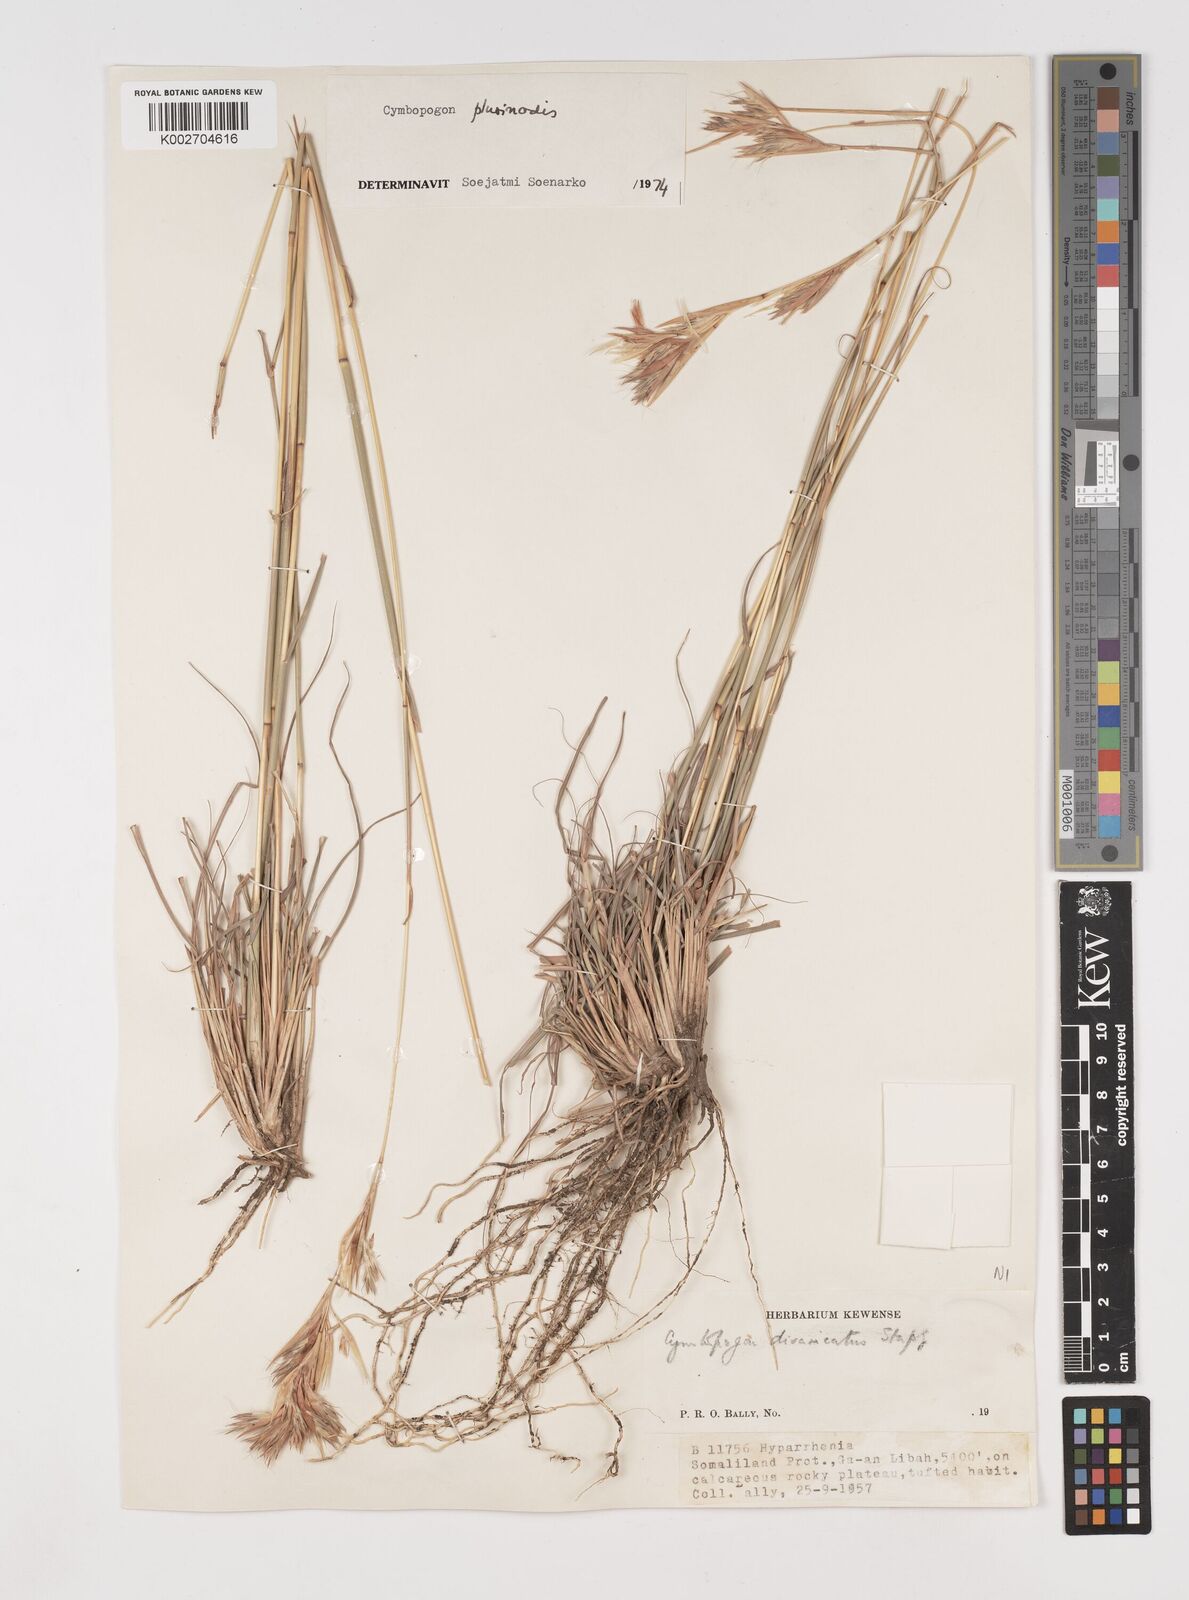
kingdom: Plantae
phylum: Tracheophyta
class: Liliopsida
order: Poales
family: Poaceae
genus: Cymbopogon
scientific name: Cymbopogon pospischilii
